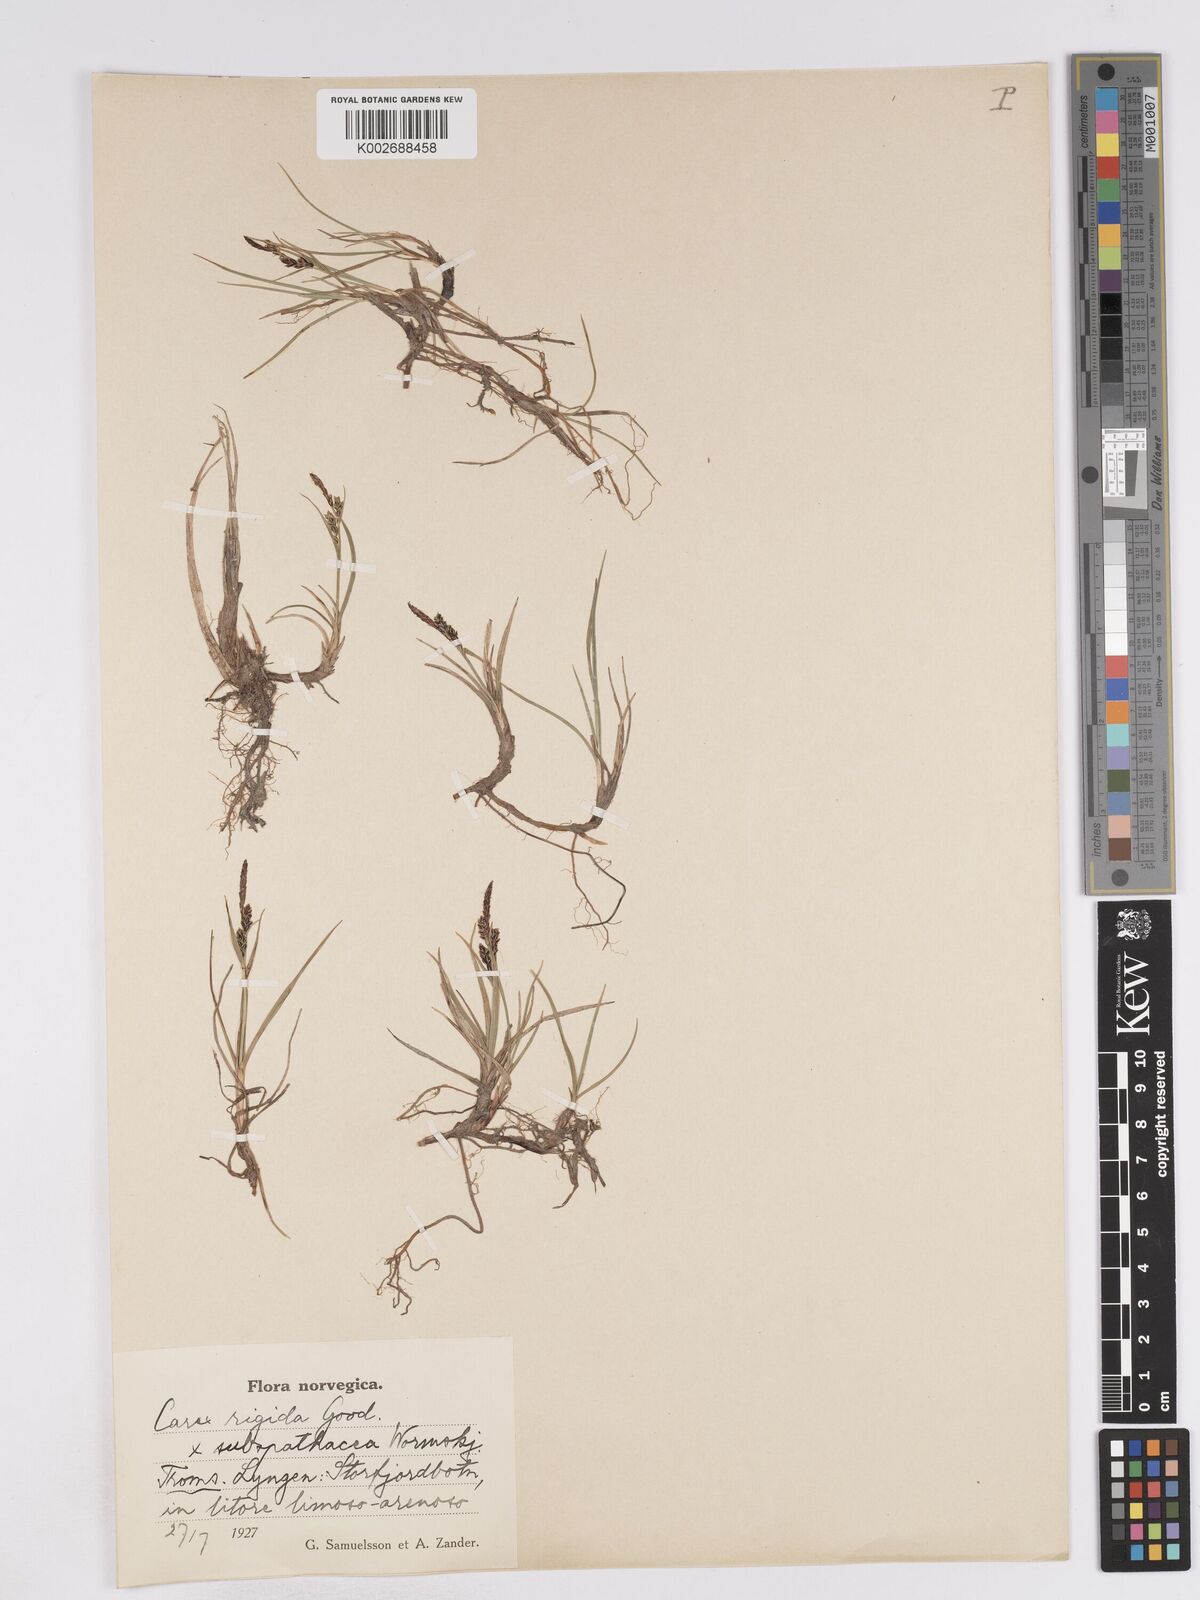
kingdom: Plantae
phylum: Tracheophyta
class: Liliopsida
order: Poales
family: Cyperaceae
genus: Carex
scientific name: Carex subspathacea
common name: Hoppner's sedge
